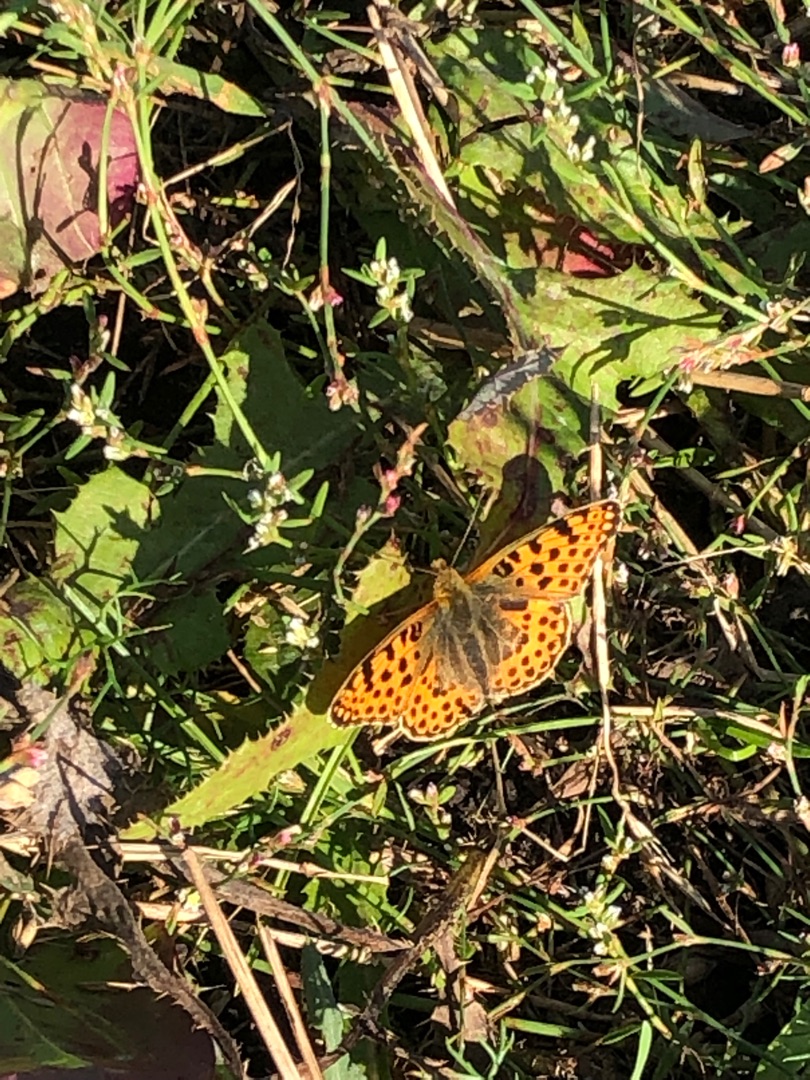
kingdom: Animalia
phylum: Arthropoda
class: Insecta
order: Lepidoptera
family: Nymphalidae
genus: Issoria
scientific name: Issoria lathonia
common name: Storplettet perlemorsommerfugl
